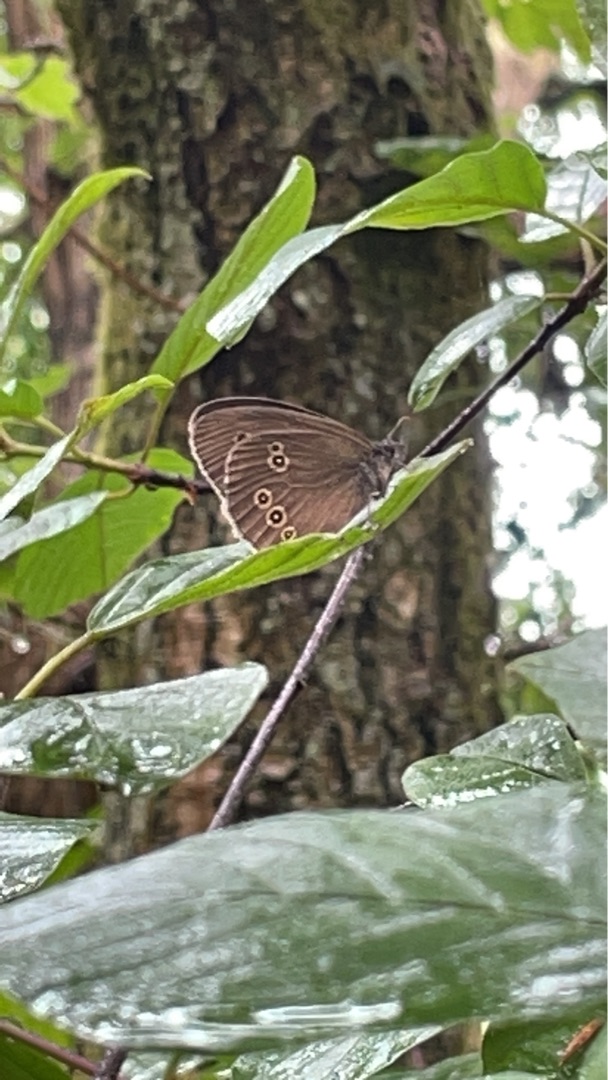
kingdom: Animalia
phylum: Arthropoda
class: Insecta
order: Lepidoptera
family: Nymphalidae
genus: Aphantopus
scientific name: Aphantopus hyperantus
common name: Engrandøje
